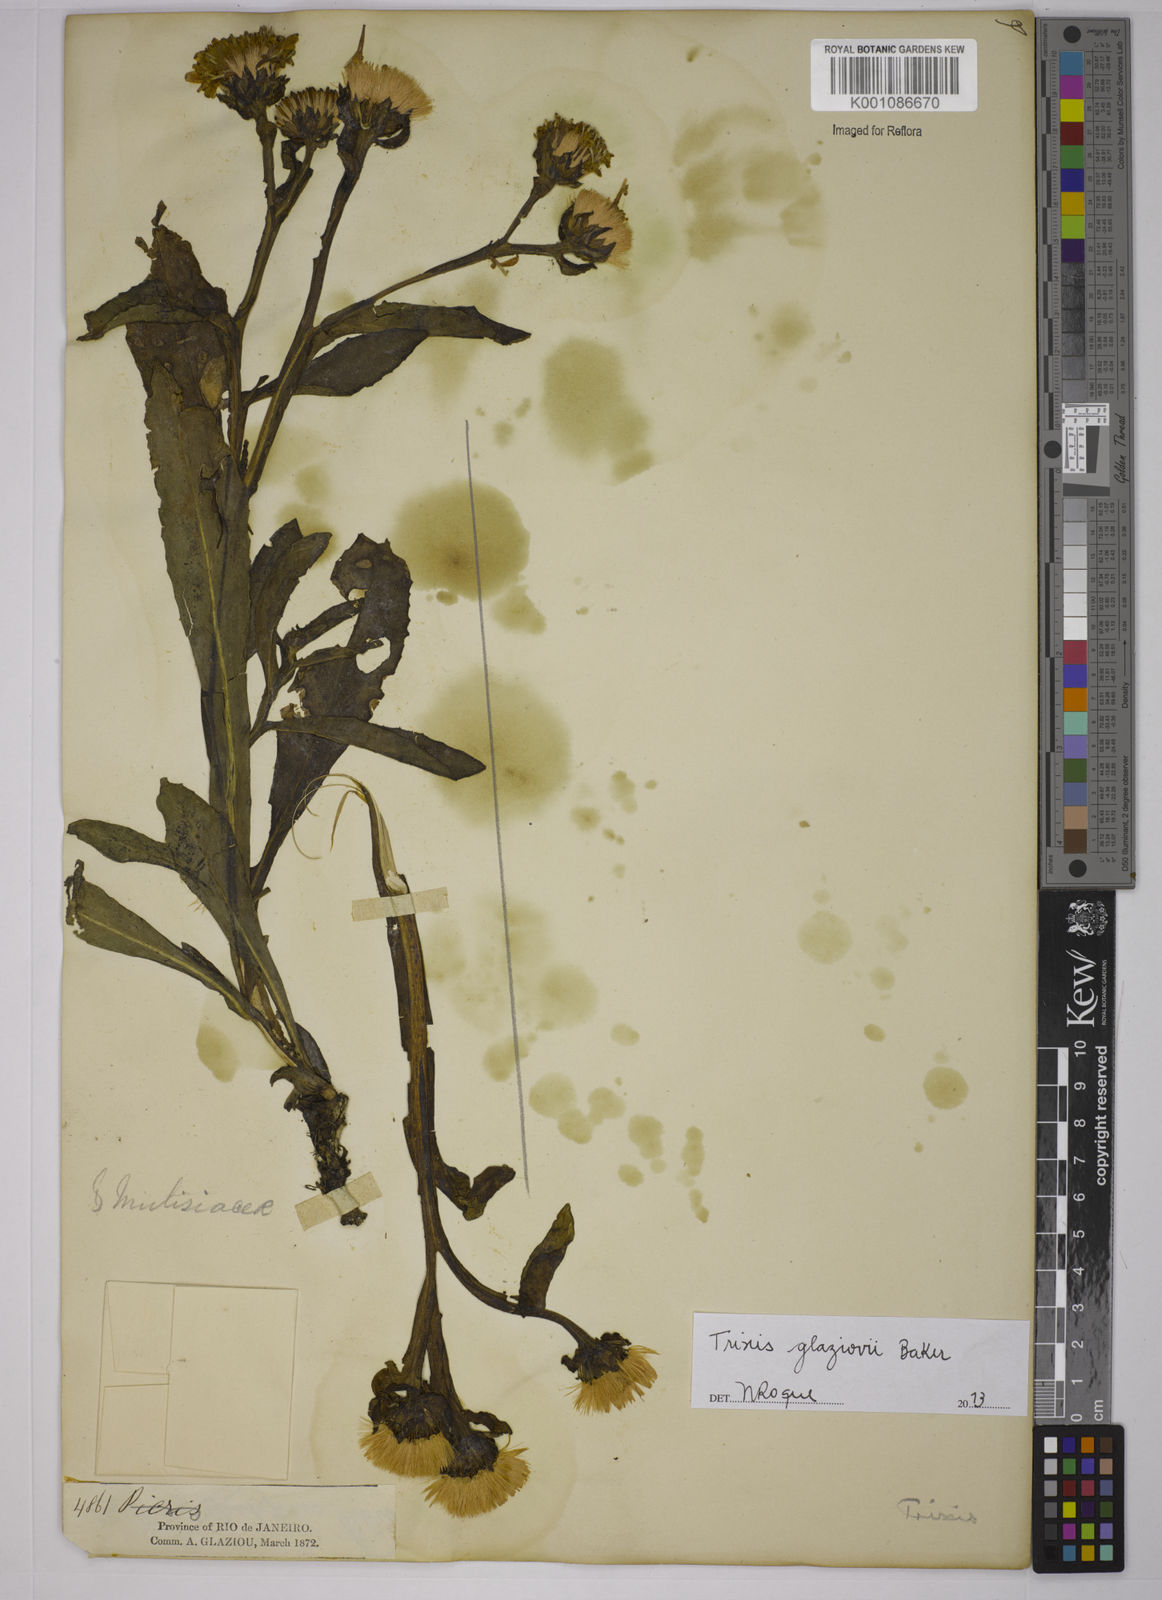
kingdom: Plantae
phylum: Tracheophyta
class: Magnoliopsida
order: Asterales
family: Asteraceae
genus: Trixis
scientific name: Trixis glaziovii
